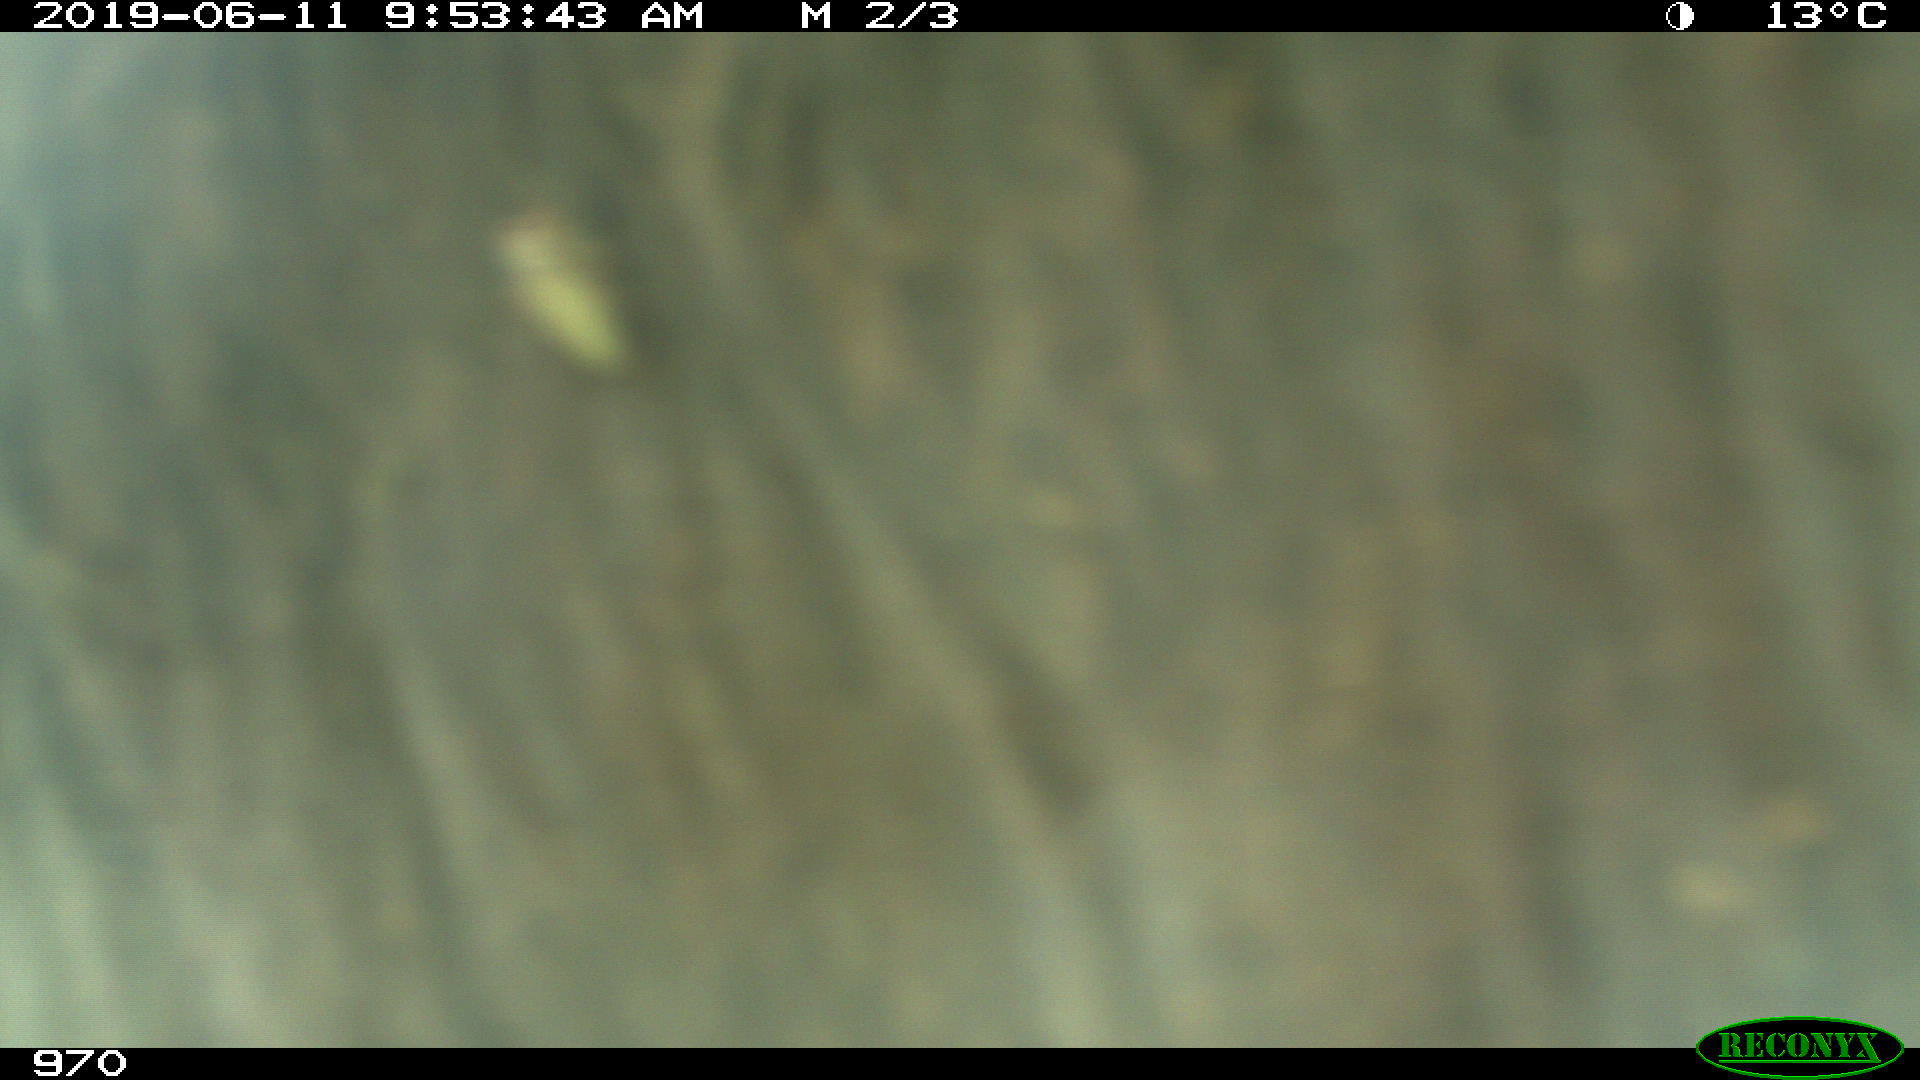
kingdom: Animalia
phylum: Chordata
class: Mammalia
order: Artiodactyla
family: Bovidae
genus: Bos
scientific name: Bos taurus
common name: Domesticated cattle
